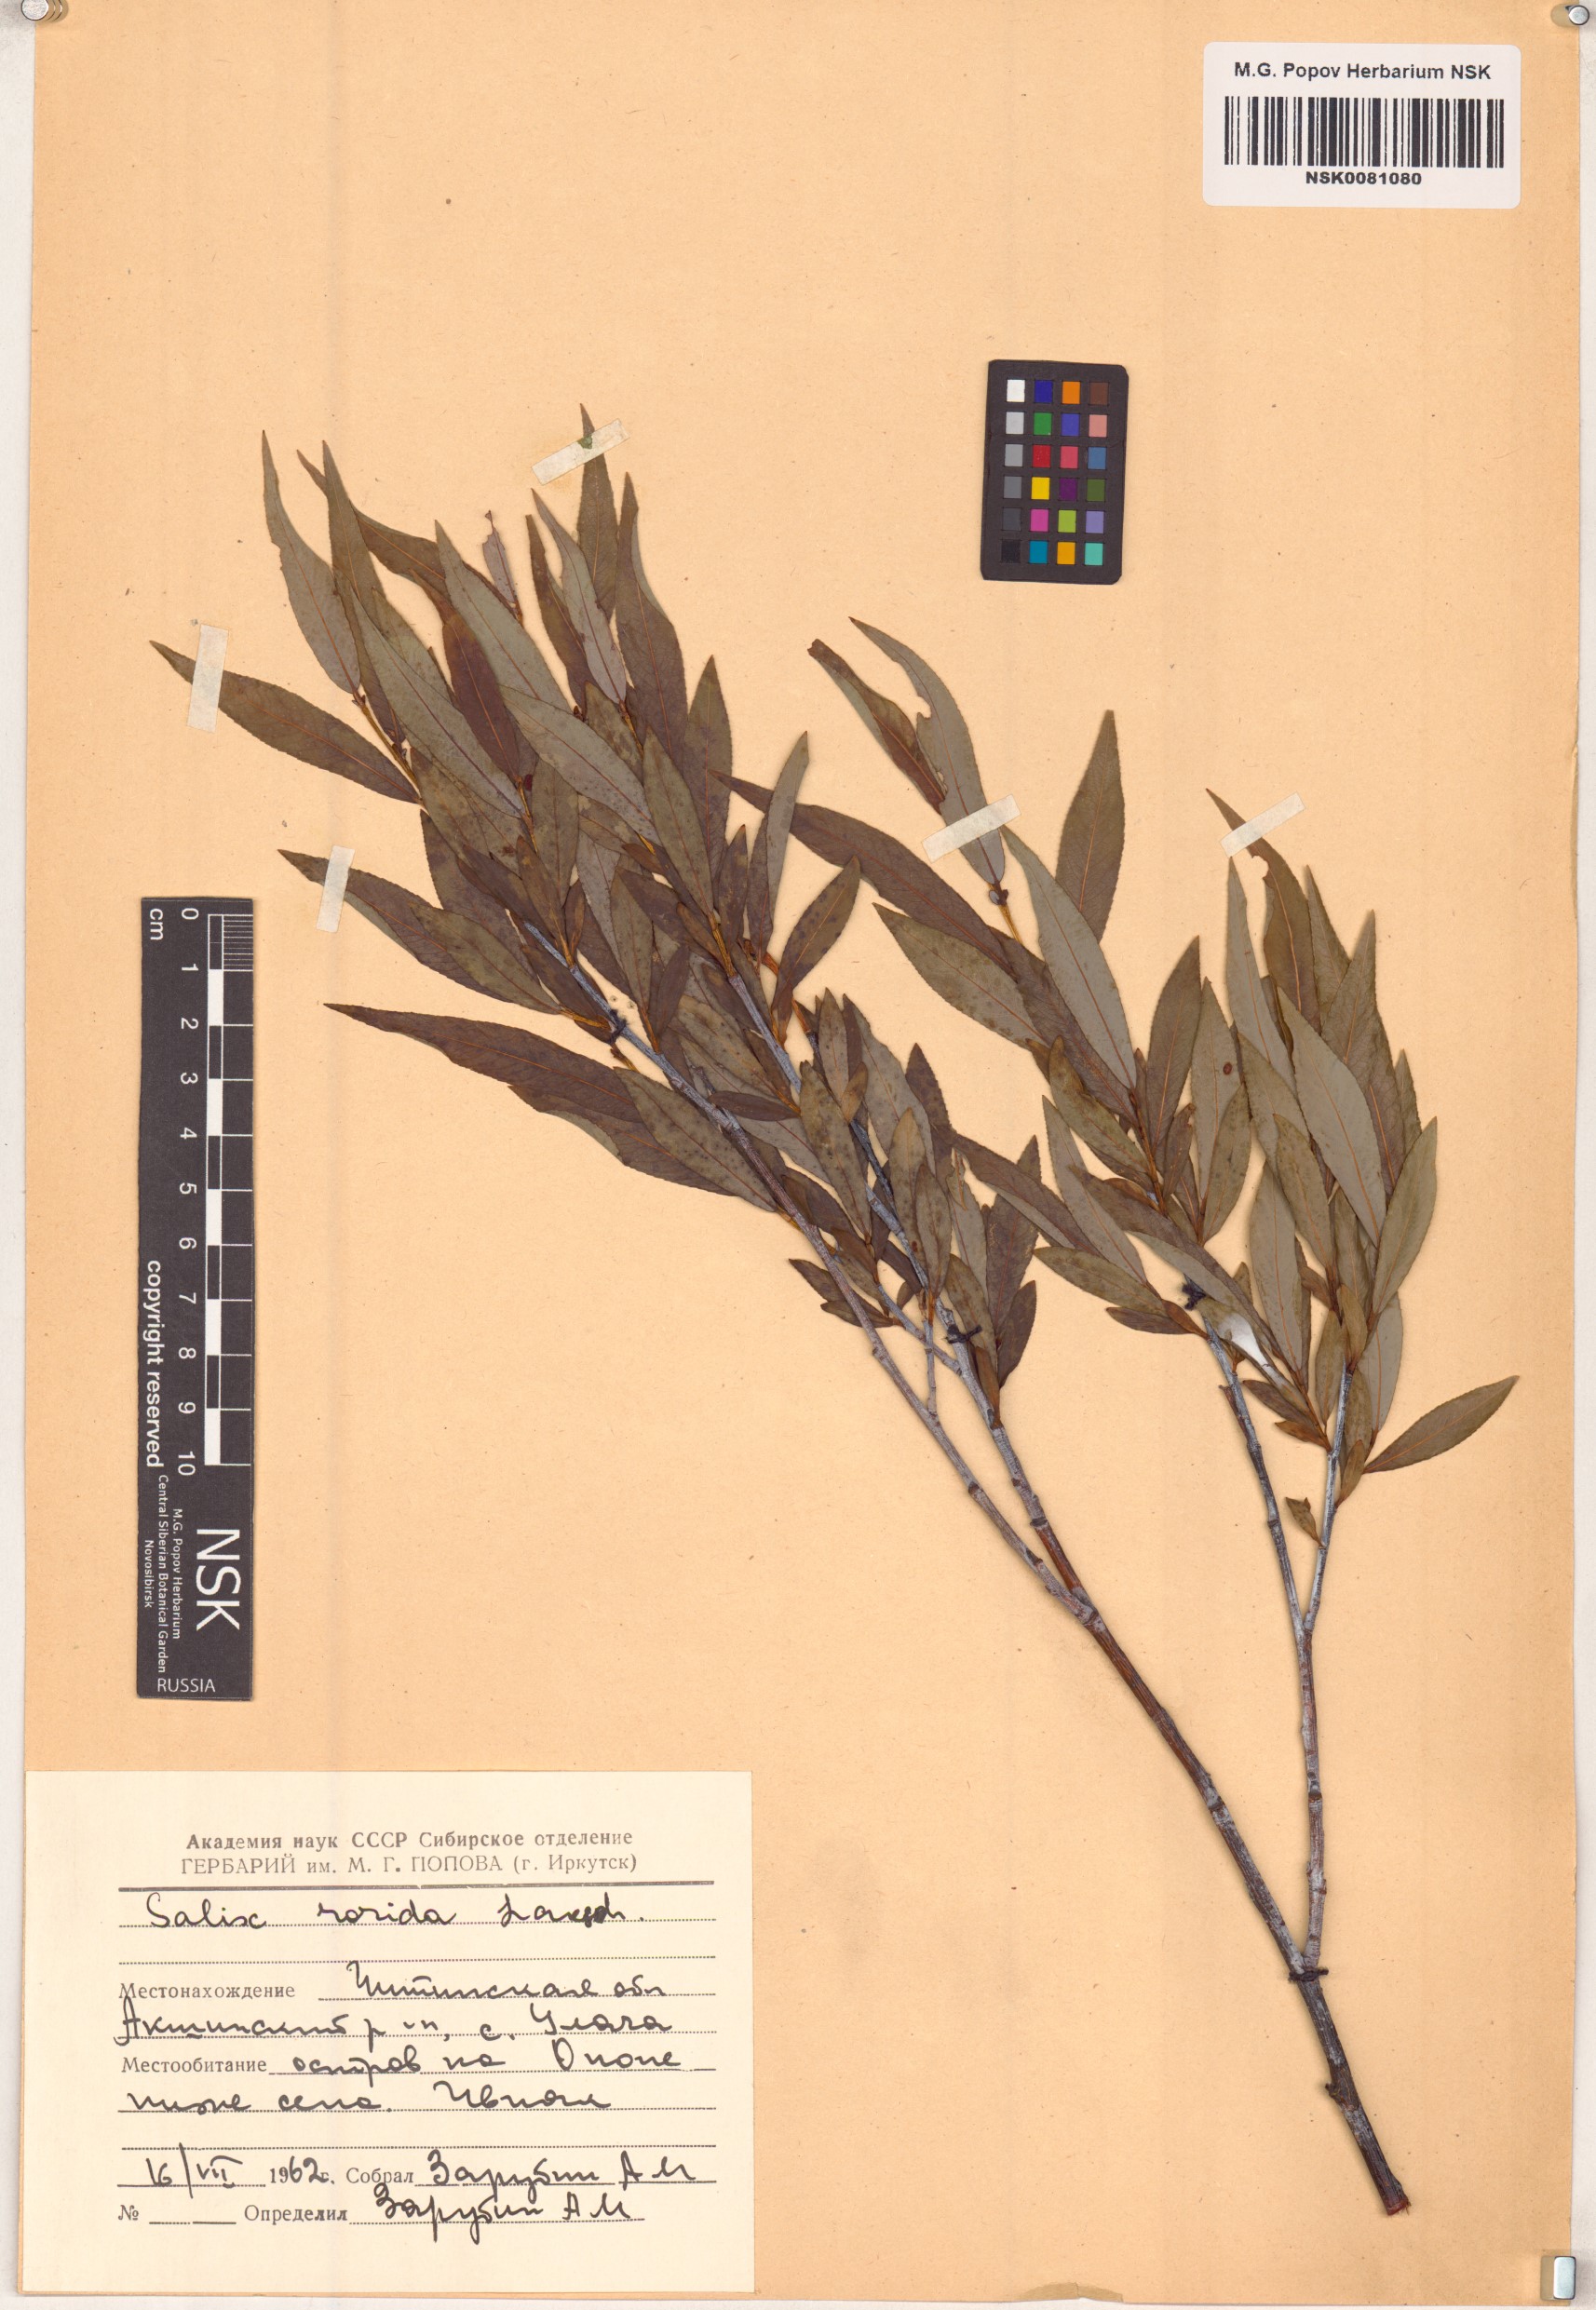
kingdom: Plantae
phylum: Tracheophyta
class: Magnoliopsida
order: Malpighiales
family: Salicaceae
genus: Salix
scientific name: Salix rorida
